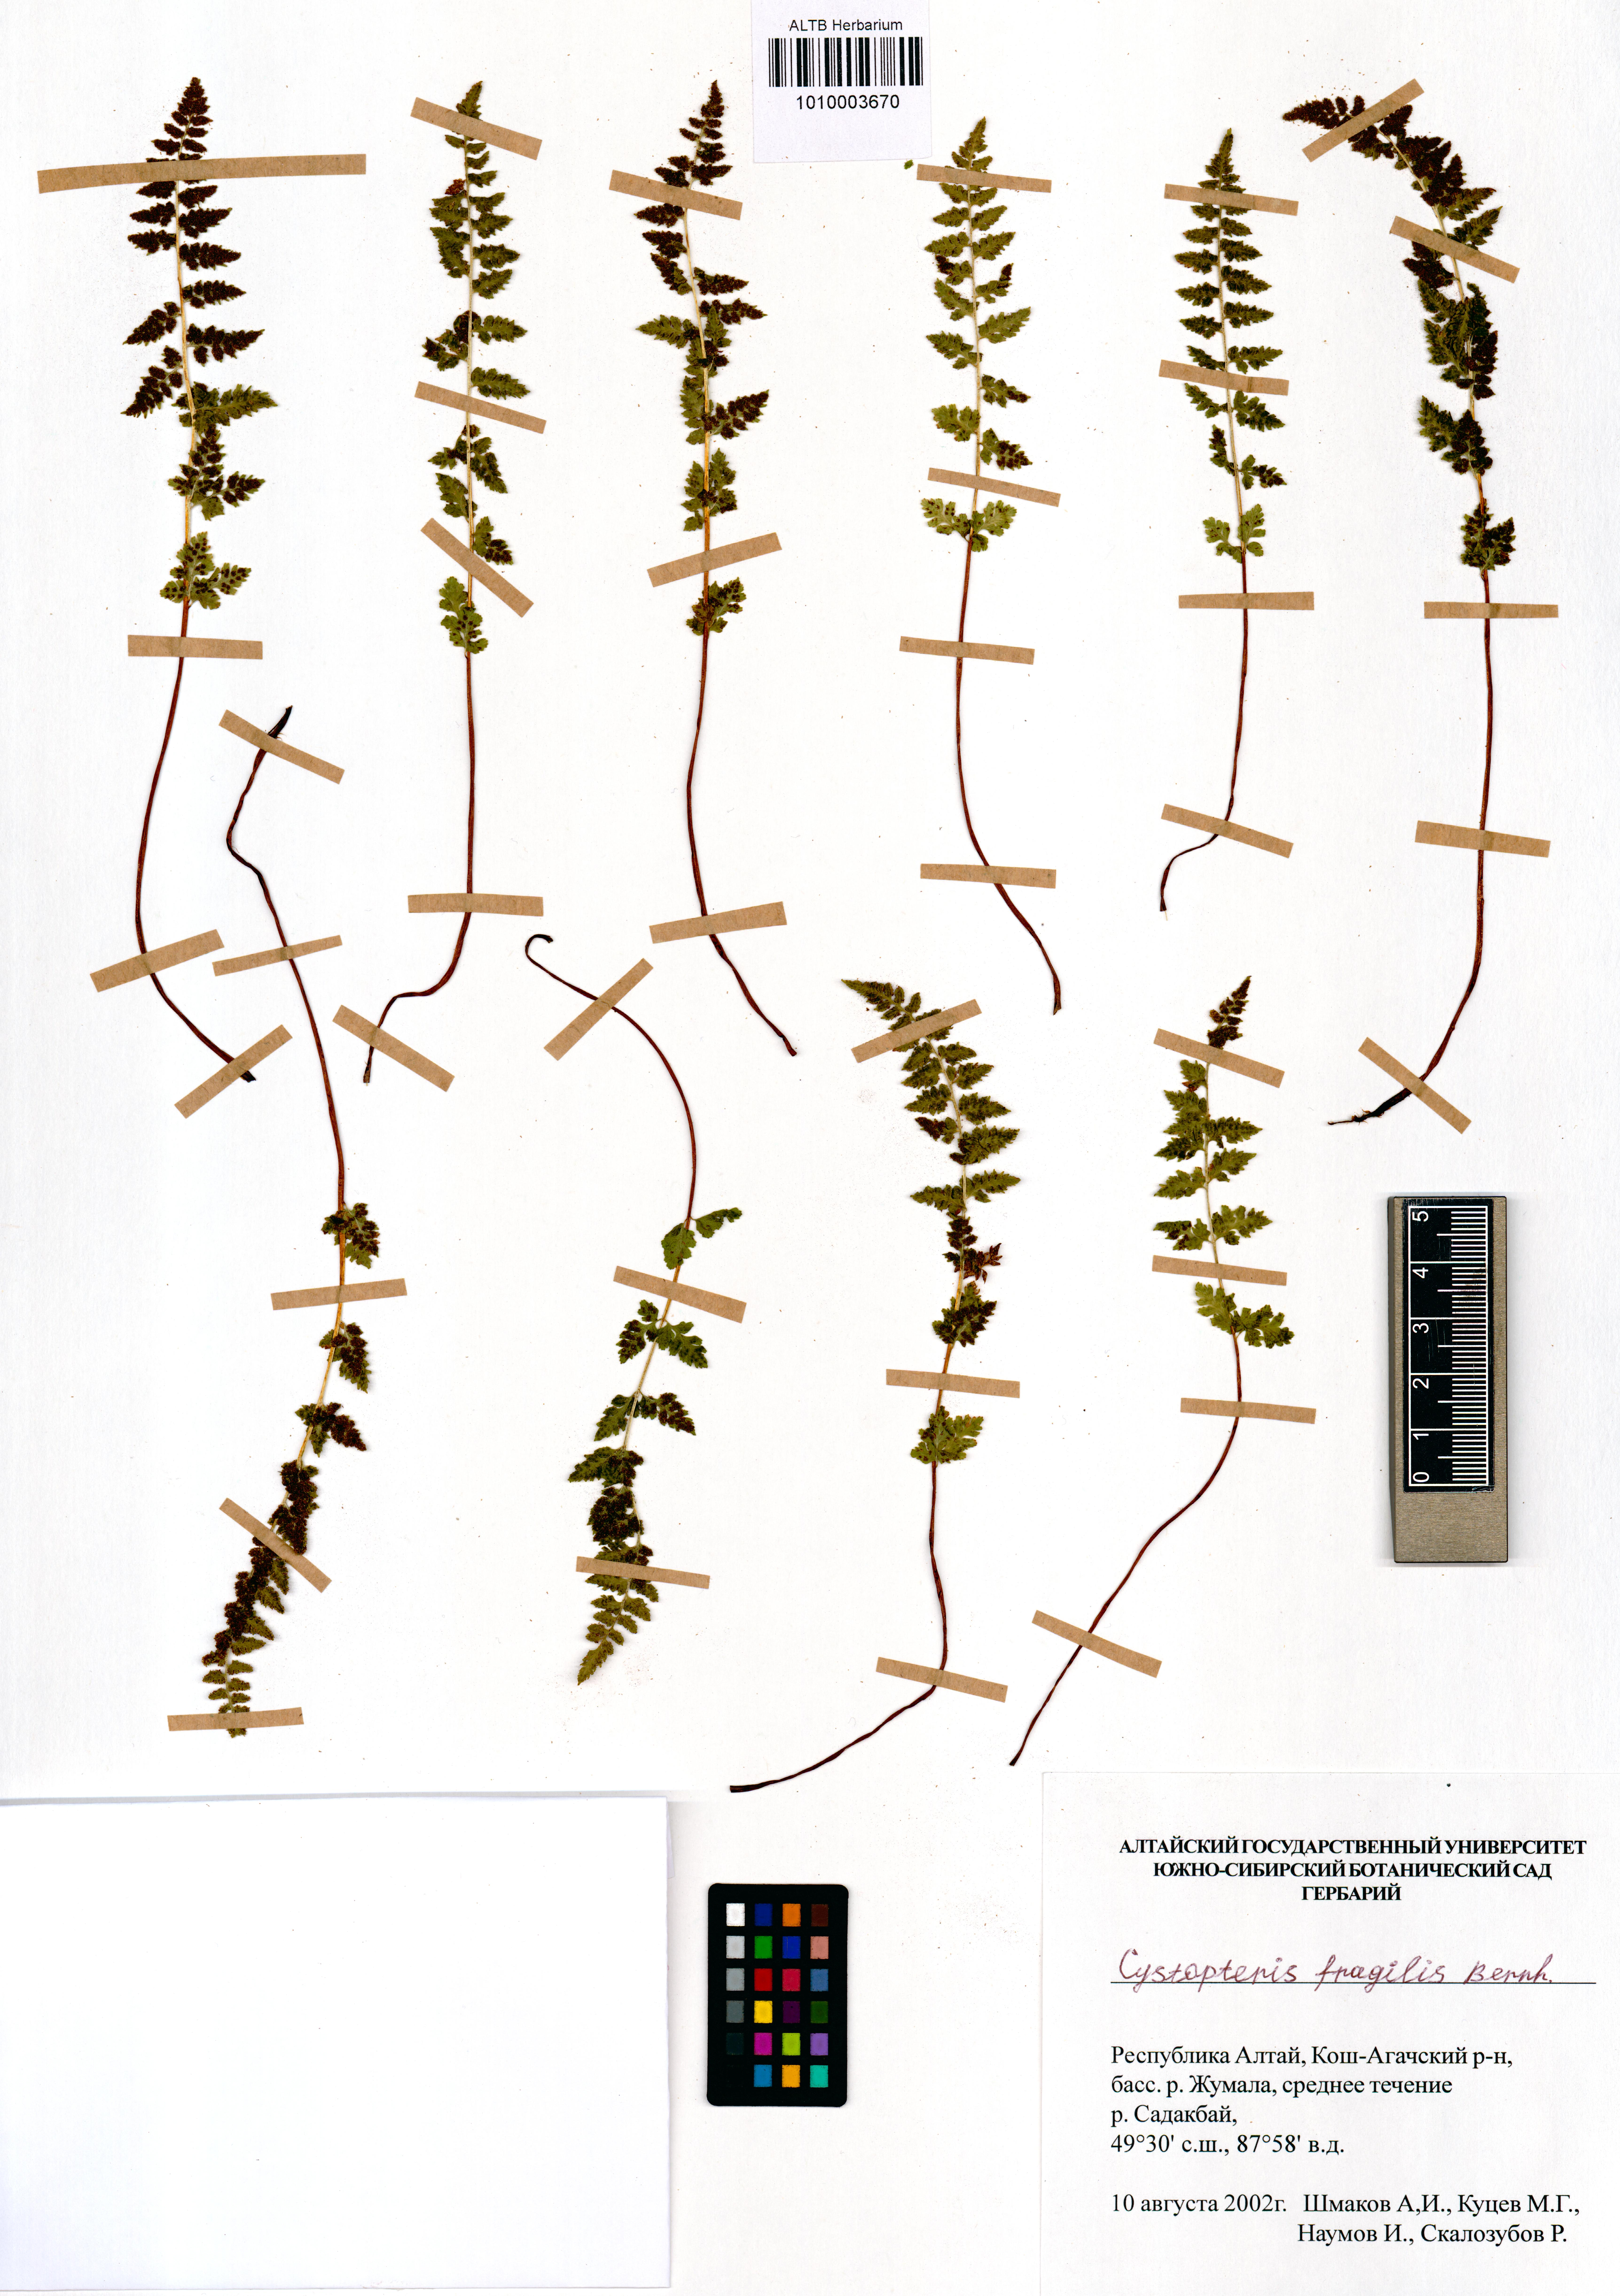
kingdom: Plantae
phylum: Tracheophyta
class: Polypodiopsida
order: Polypodiales
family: Cystopteridaceae
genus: Cystopteris
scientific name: Cystopteris fragilis
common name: Brittle bladder fern
